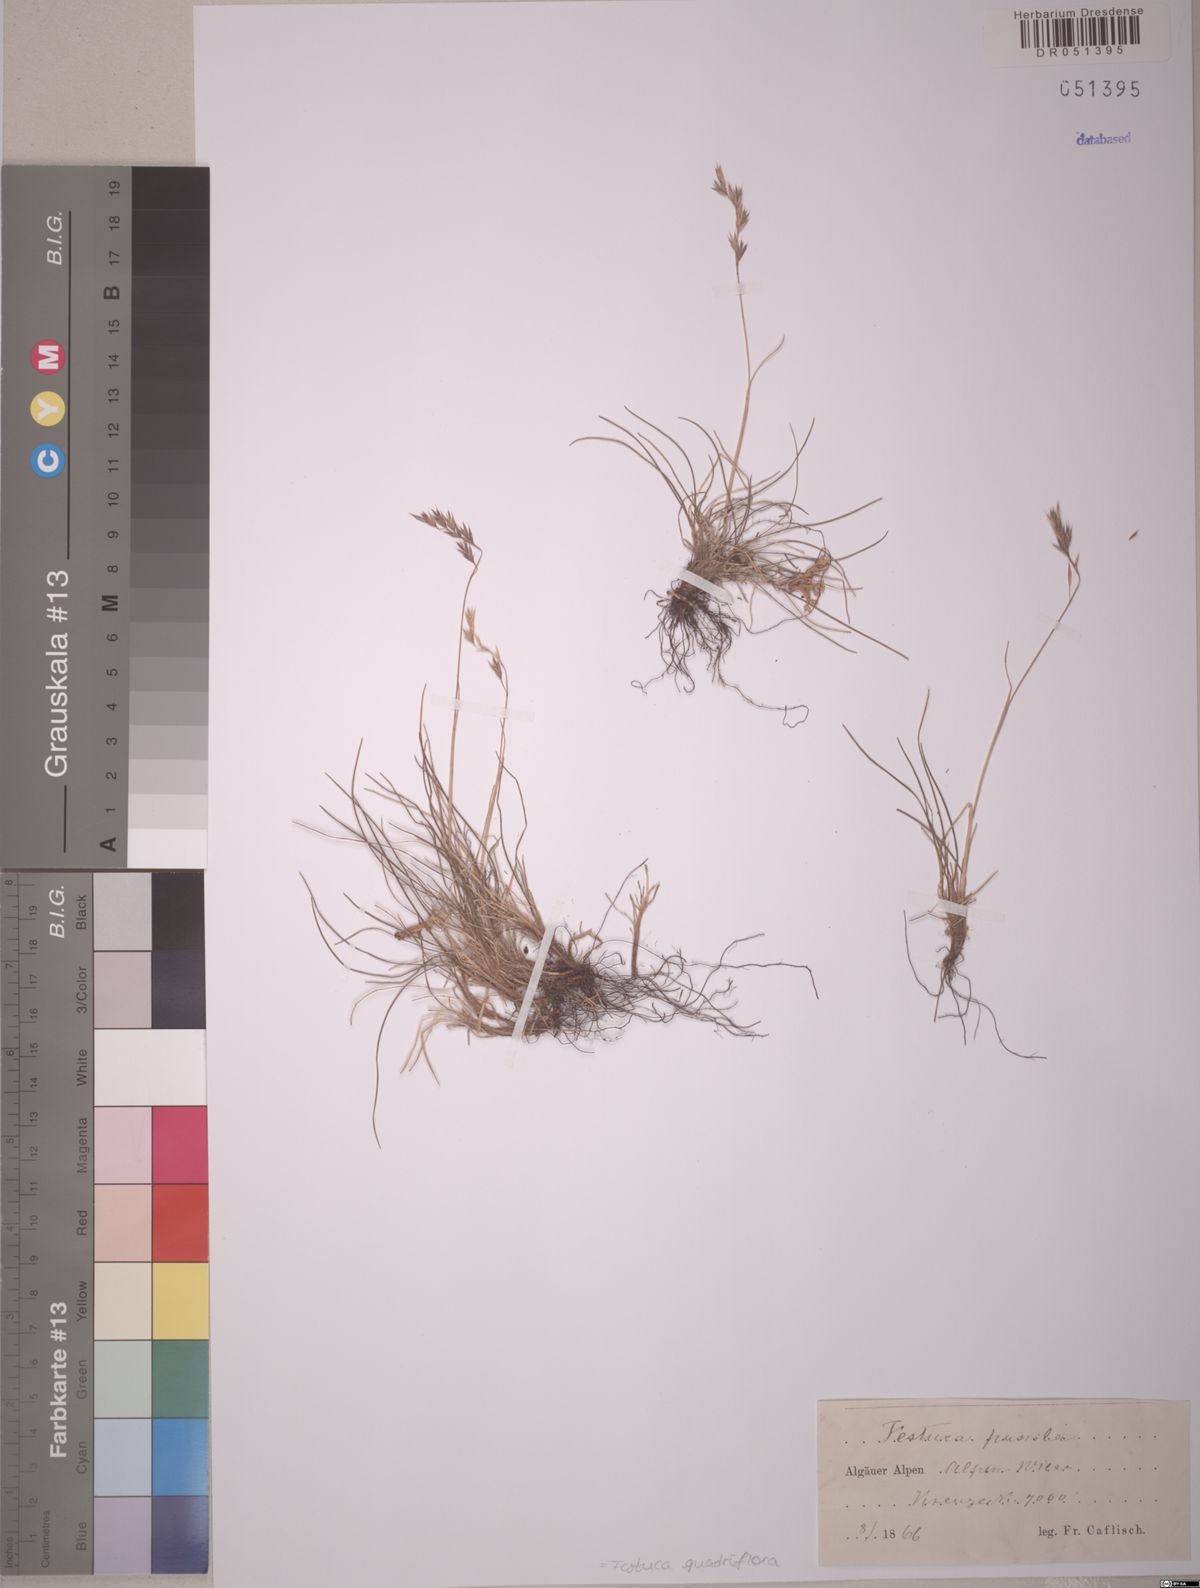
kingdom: Plantae
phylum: Tracheophyta
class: Liliopsida
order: Poales
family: Poaceae
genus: Festuca
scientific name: Festuca quadriflora
